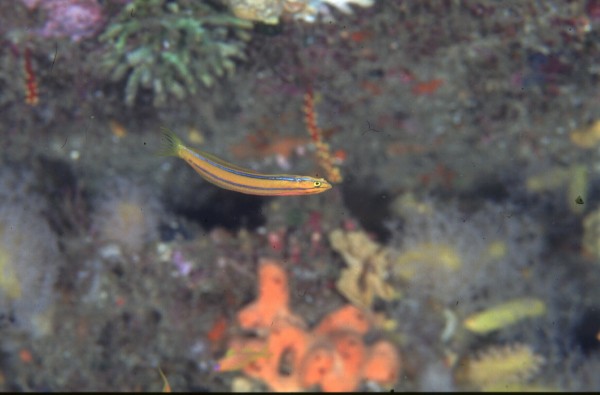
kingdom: Animalia
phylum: Chordata
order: Perciformes
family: Blenniidae
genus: Plagiotremus
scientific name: Plagiotremus rhinorhynchos
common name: Bluestriped fangblenny
